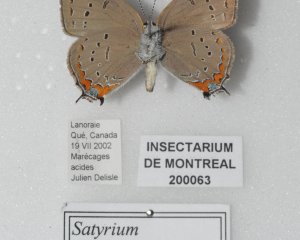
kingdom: Animalia
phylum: Arthropoda
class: Insecta
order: Lepidoptera
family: Lycaenidae
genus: Strymon
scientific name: Strymon acadica
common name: Acadian Hairstreak
